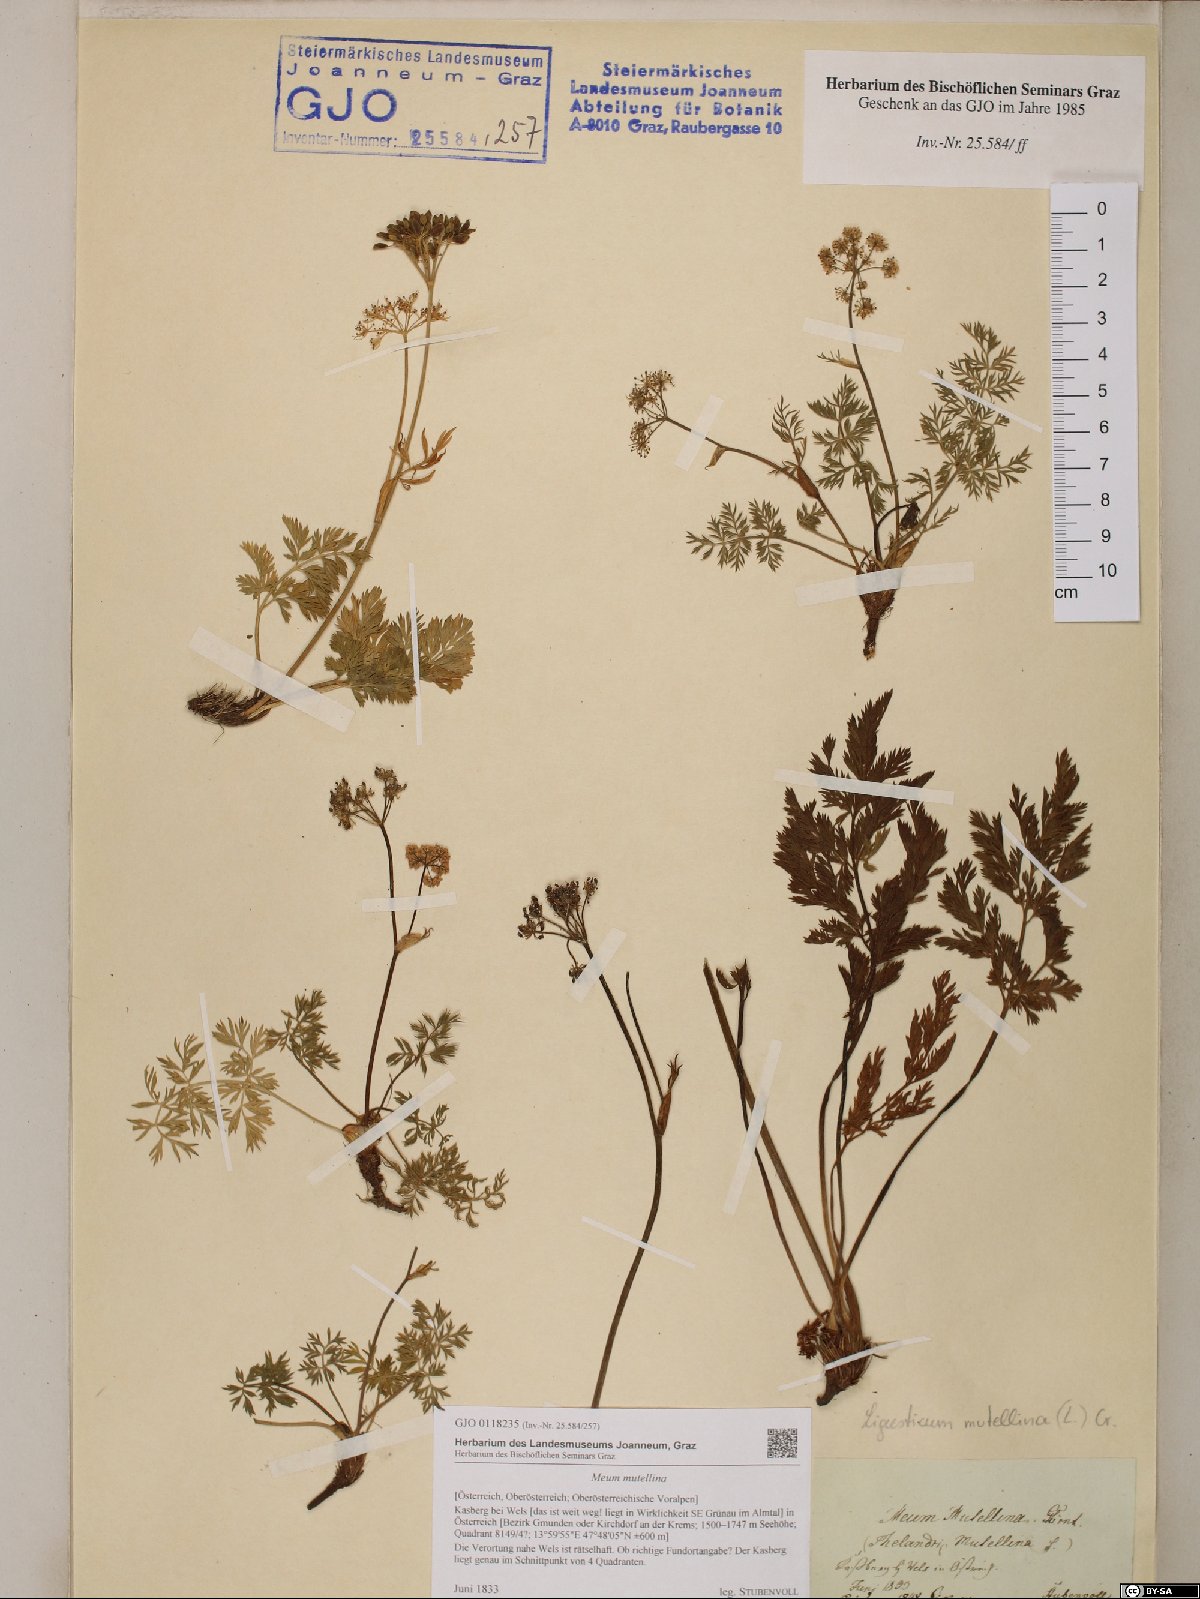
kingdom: Plantae
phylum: Tracheophyta
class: Magnoliopsida
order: Apiales
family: Apiaceae
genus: Mutellina
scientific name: Mutellina adonidifolia
